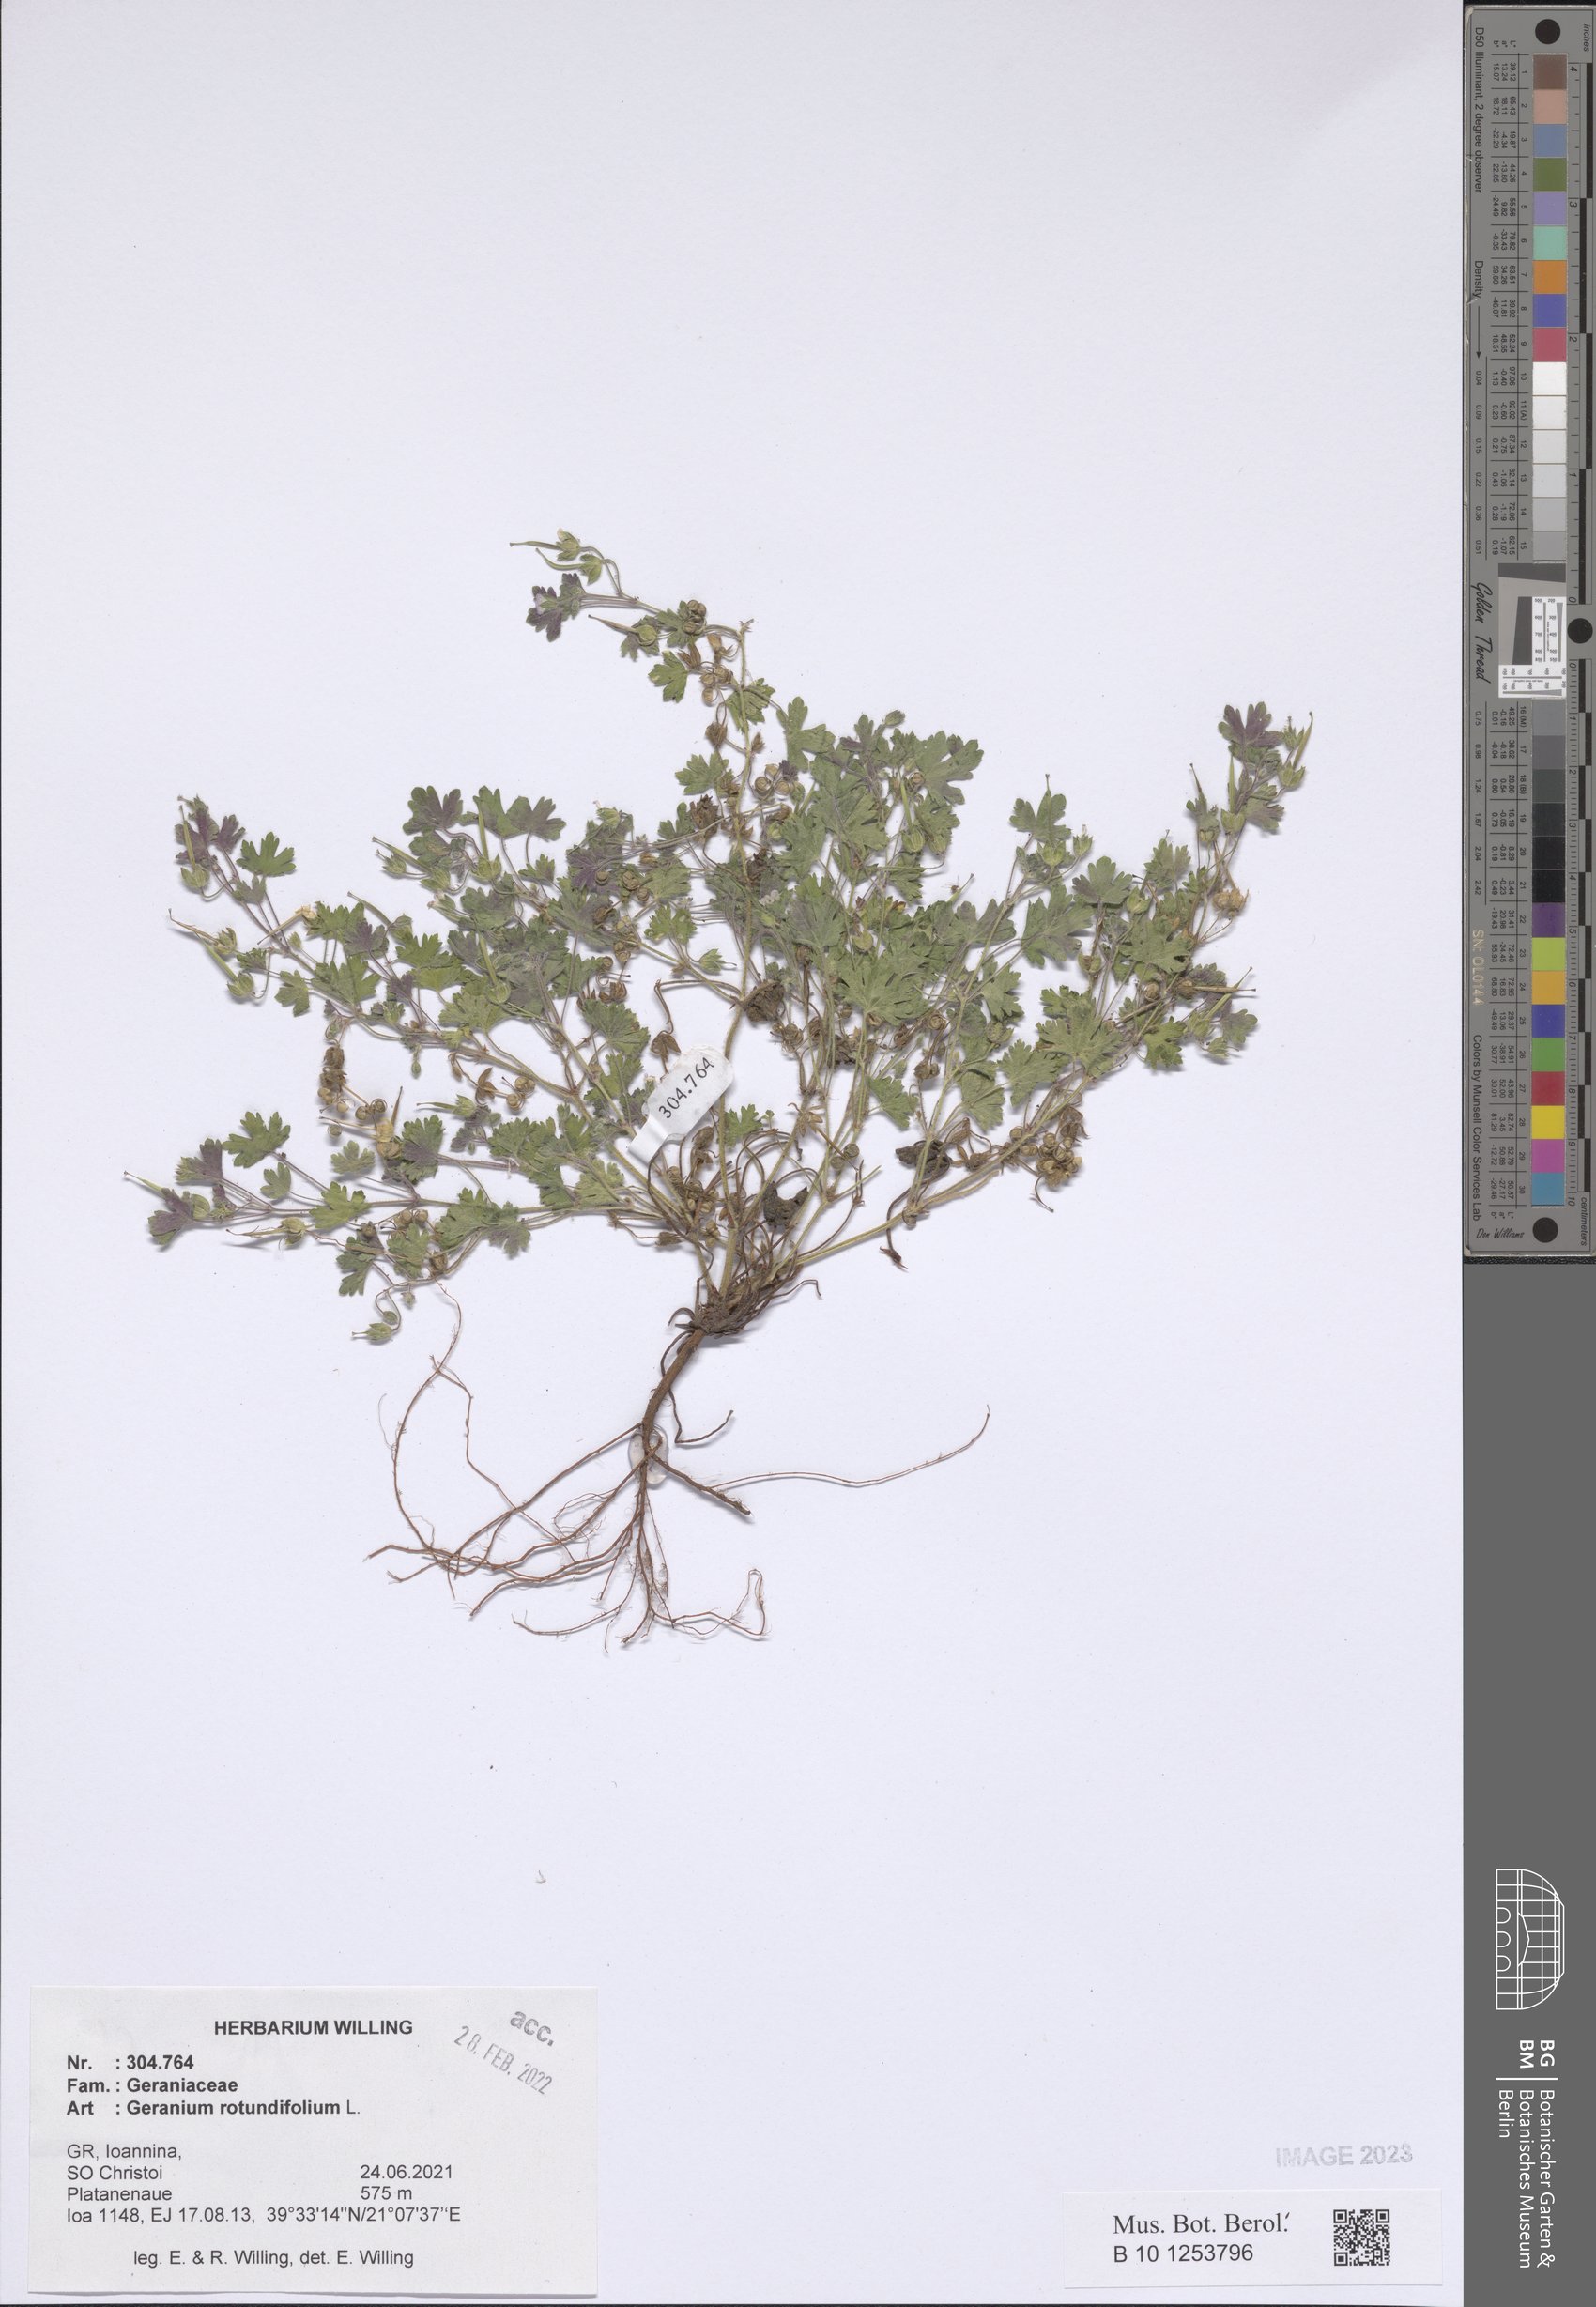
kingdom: Plantae
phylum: Tracheophyta
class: Magnoliopsida
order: Geraniales
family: Geraniaceae
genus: Geranium
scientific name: Geranium rotundifolium
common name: Round-leaved crane's-bill
